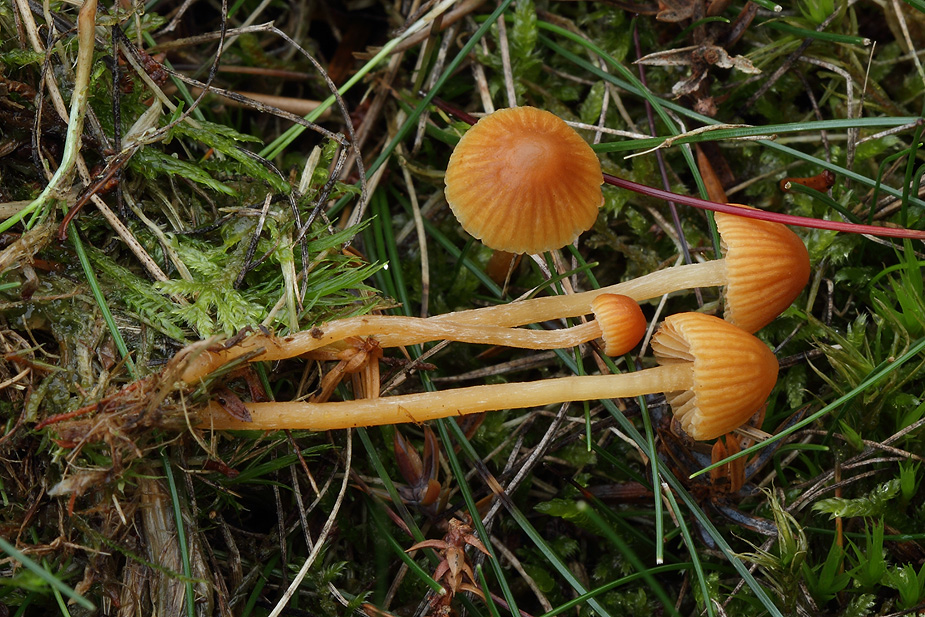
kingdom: Fungi
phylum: Basidiomycota
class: Agaricomycetes
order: Agaricales
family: Hymenogastraceae
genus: Galerina
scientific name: Galerina calyptrata
